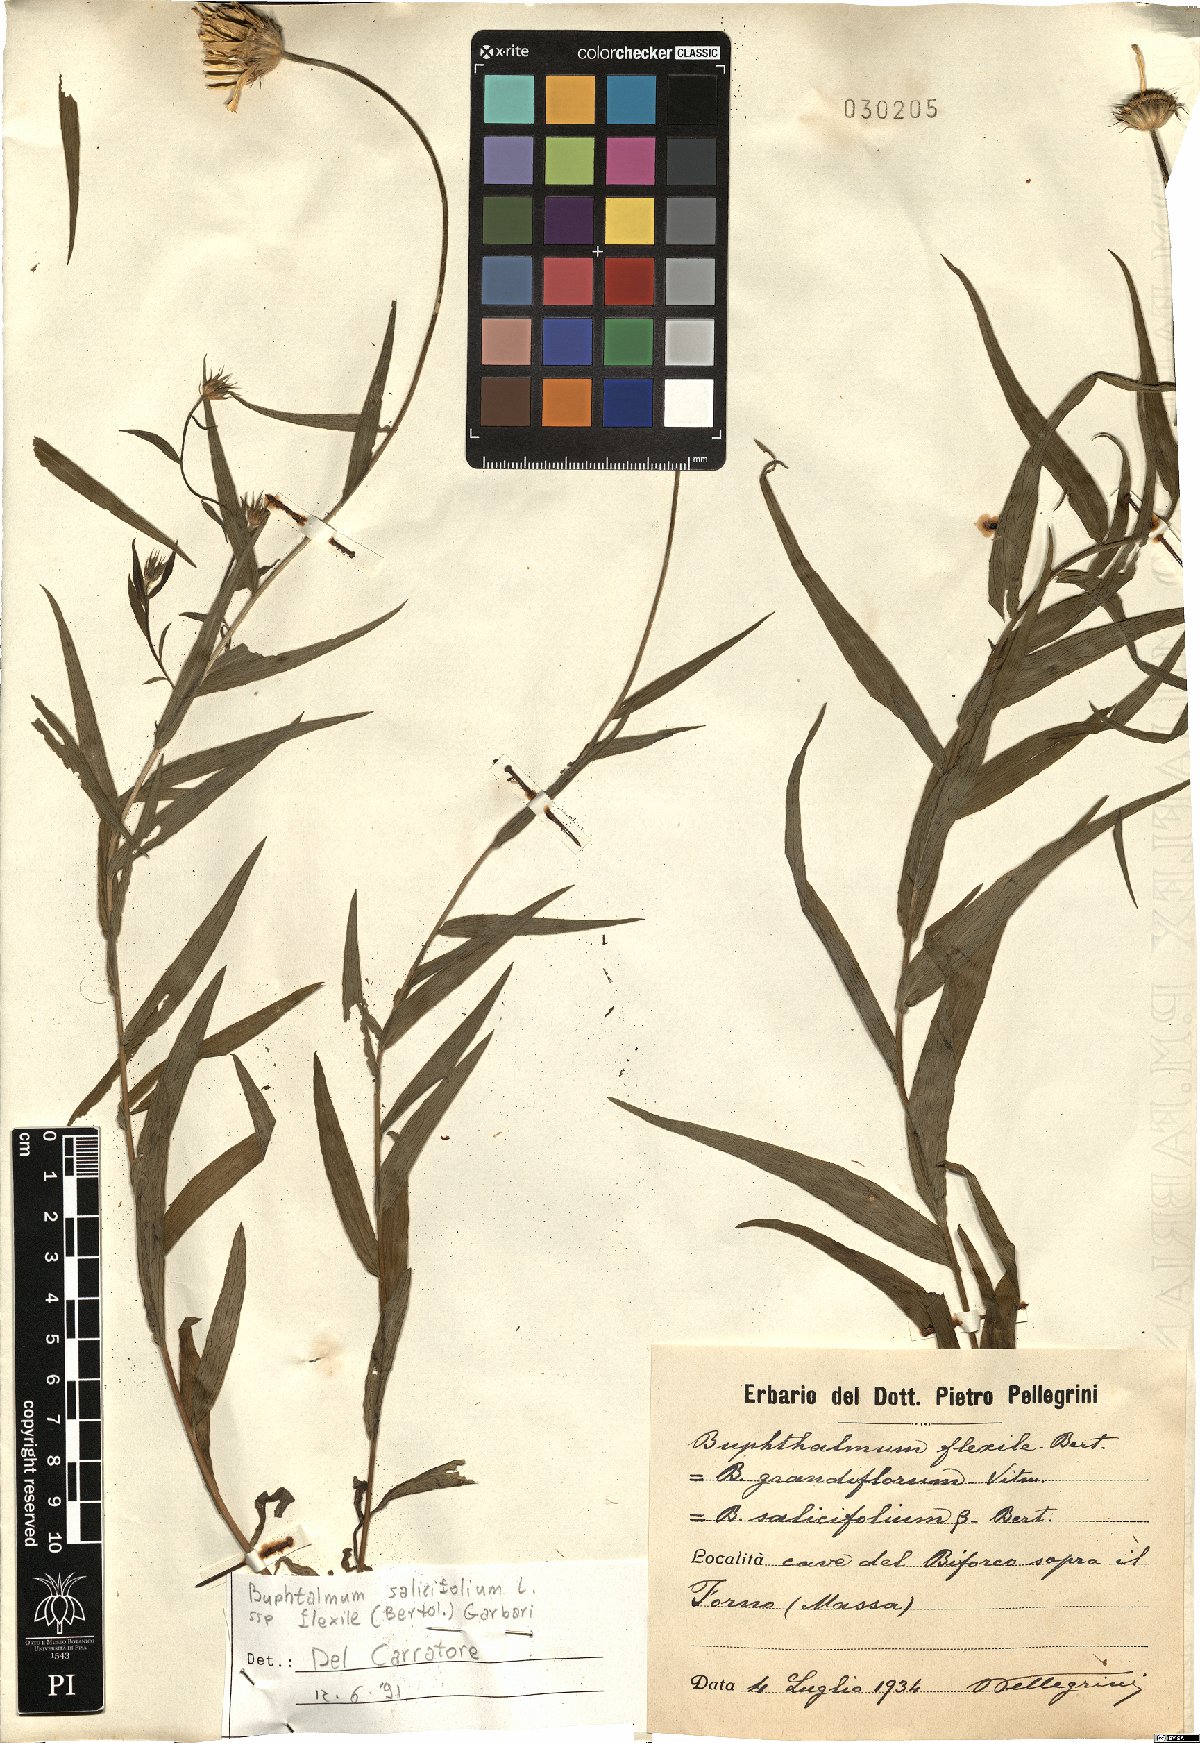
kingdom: Plantae
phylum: Tracheophyta
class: Magnoliopsida
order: Asterales
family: Asteraceae
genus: Buphthalmum
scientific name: Buphthalmum salicifolium
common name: Willow-leaved yellow-oxeye
